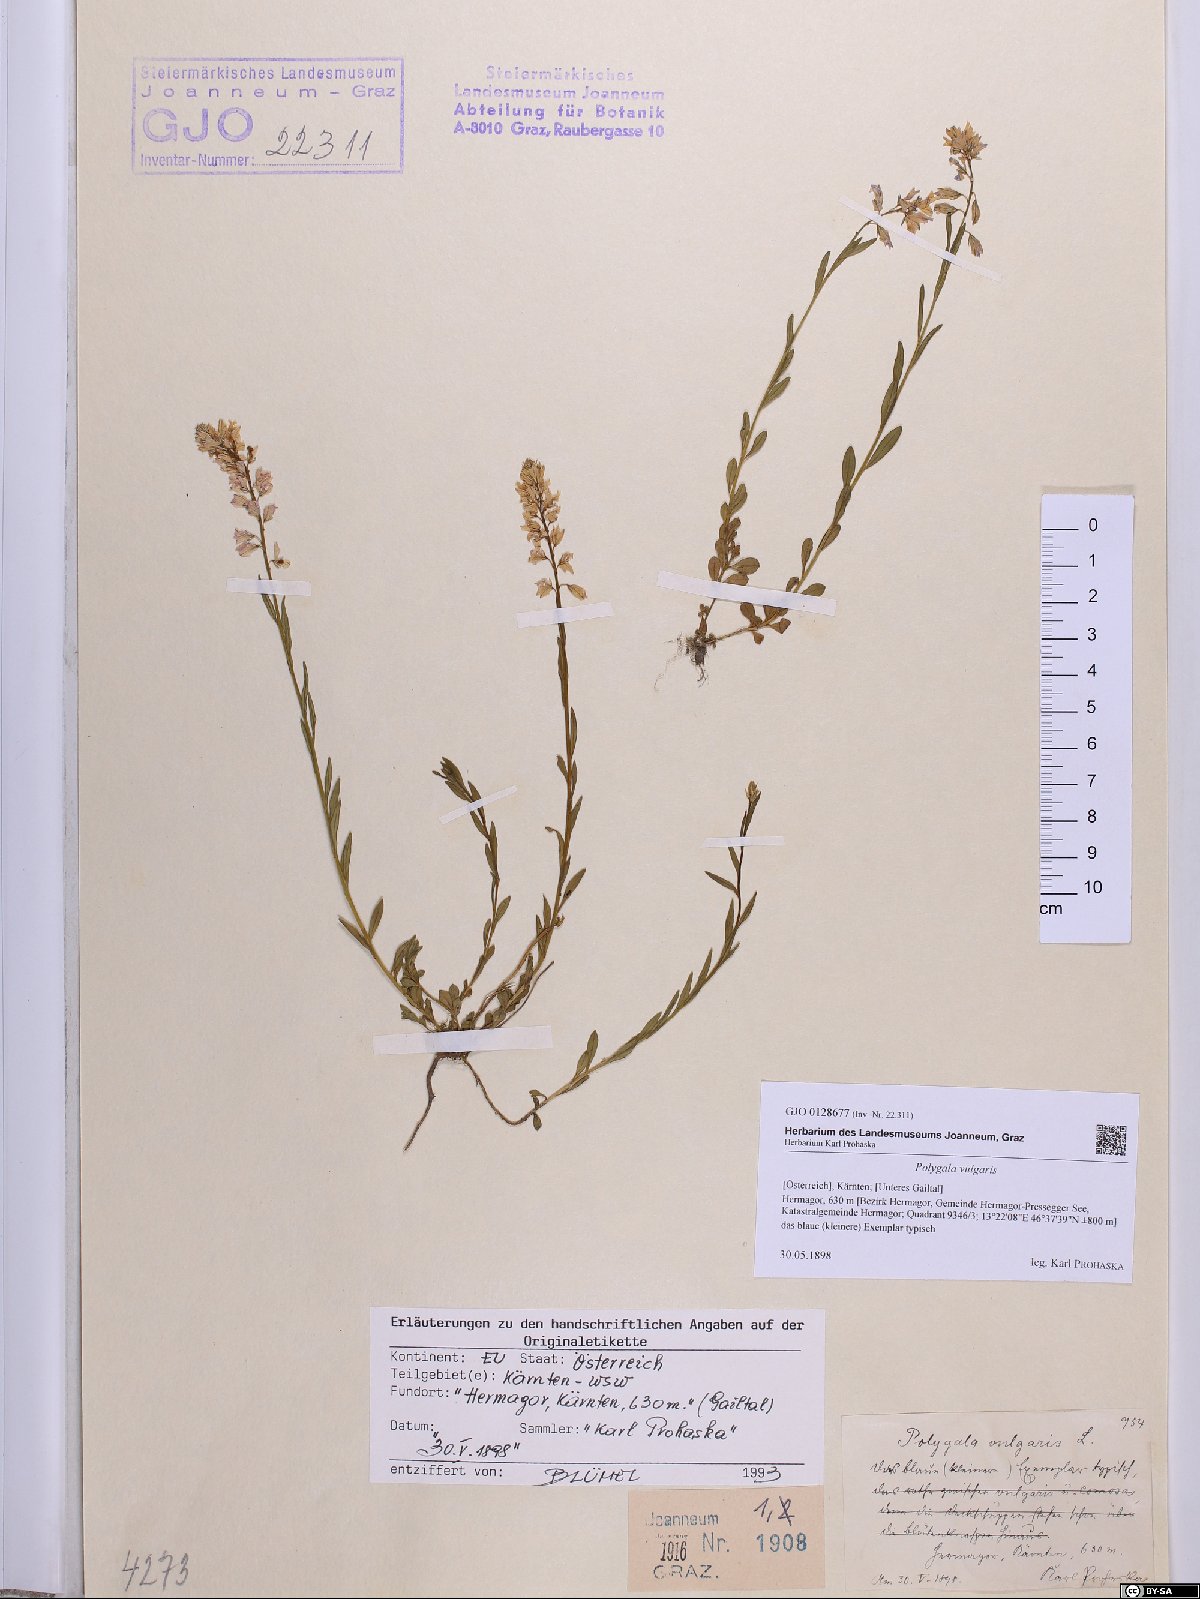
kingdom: Plantae
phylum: Tracheophyta
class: Magnoliopsida
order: Fabales
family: Polygalaceae
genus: Polygala
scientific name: Polygala vulgaris
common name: Common milkwort
